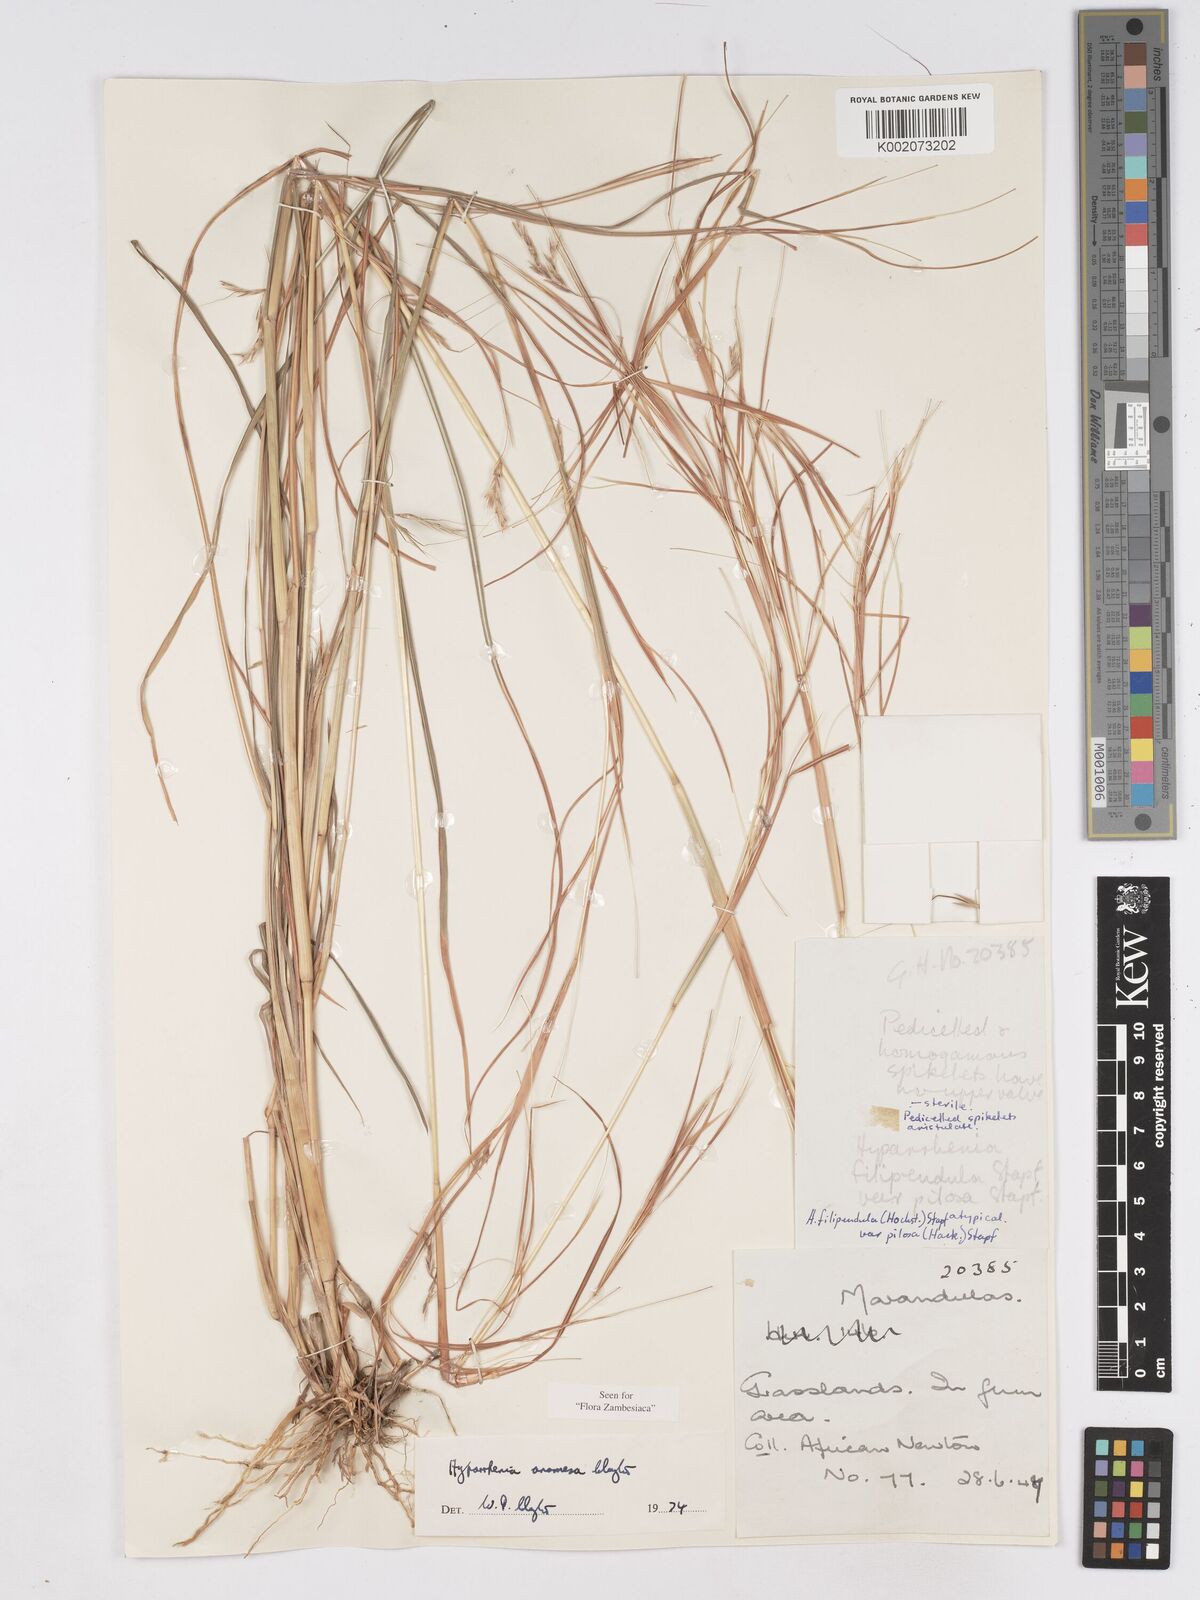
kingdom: Plantae
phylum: Tracheophyta
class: Liliopsida
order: Poales
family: Poaceae
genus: Hyparrhenia
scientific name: Hyparrhenia anamesa
